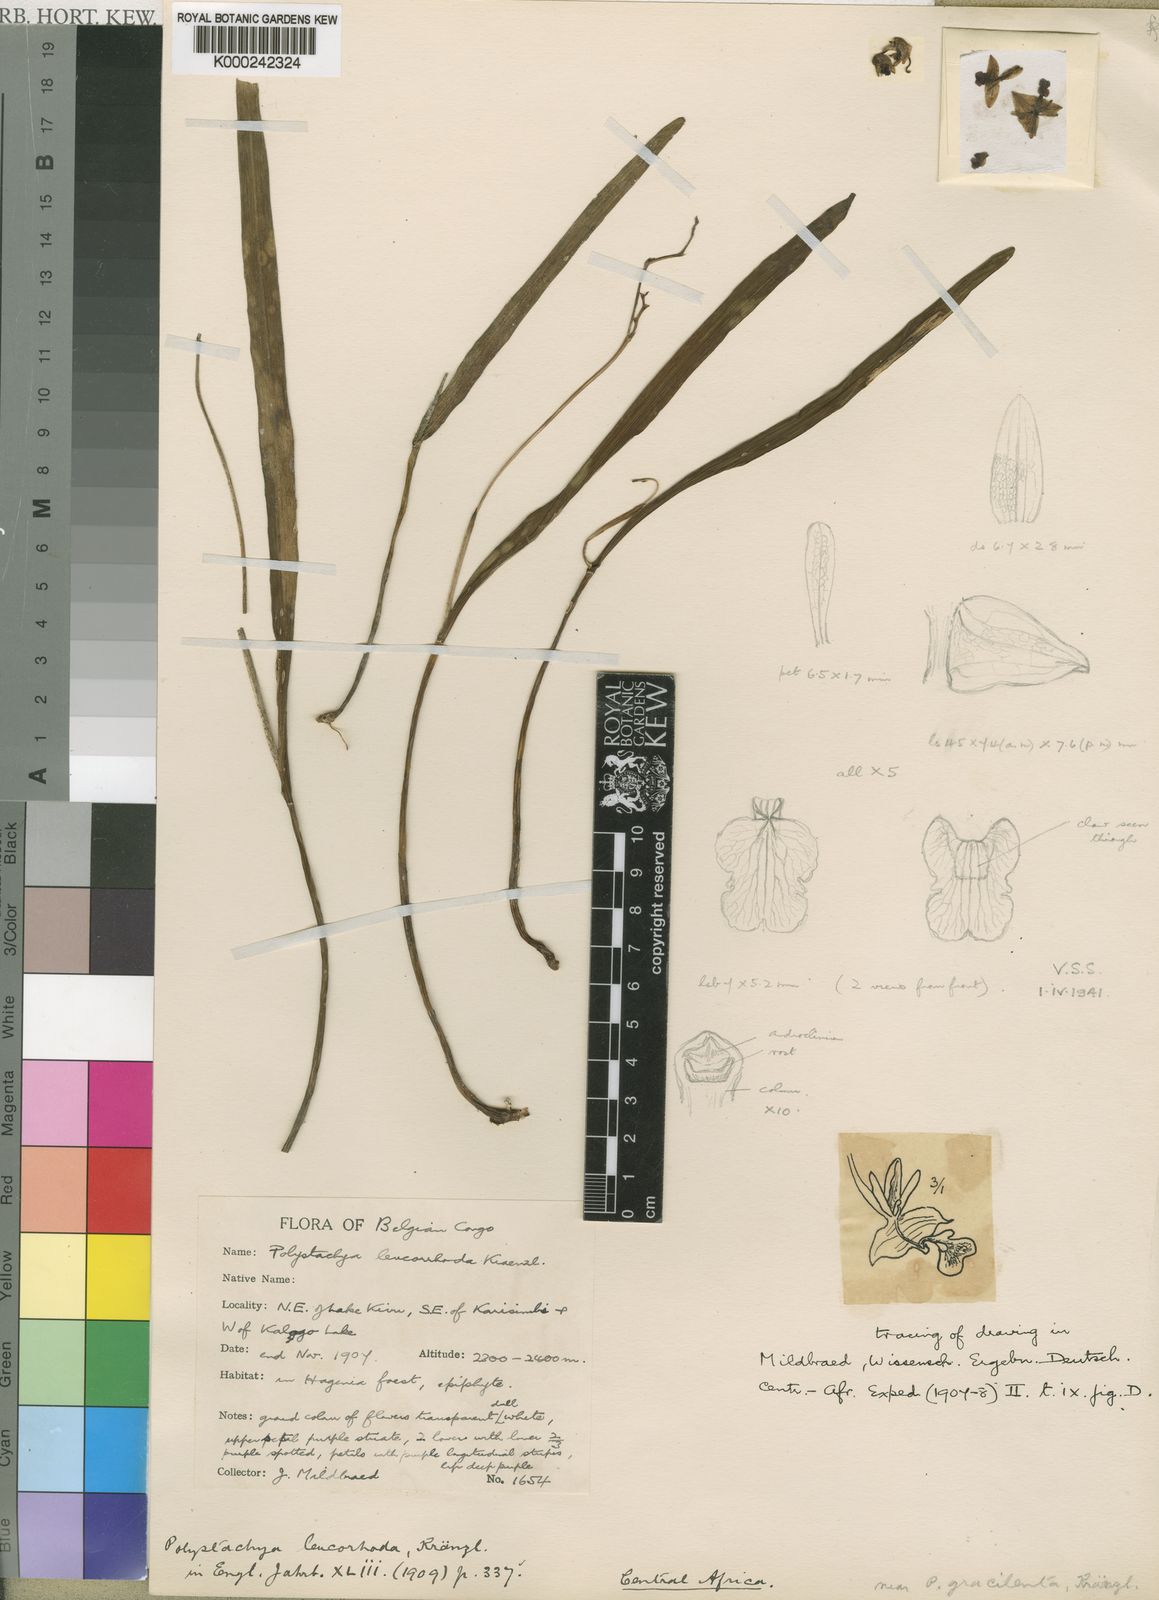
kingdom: Plantae
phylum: Tracheophyta
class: Liliopsida
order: Asparagales
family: Orchidaceae
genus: Polystachya
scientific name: Polystachya poikilantha
